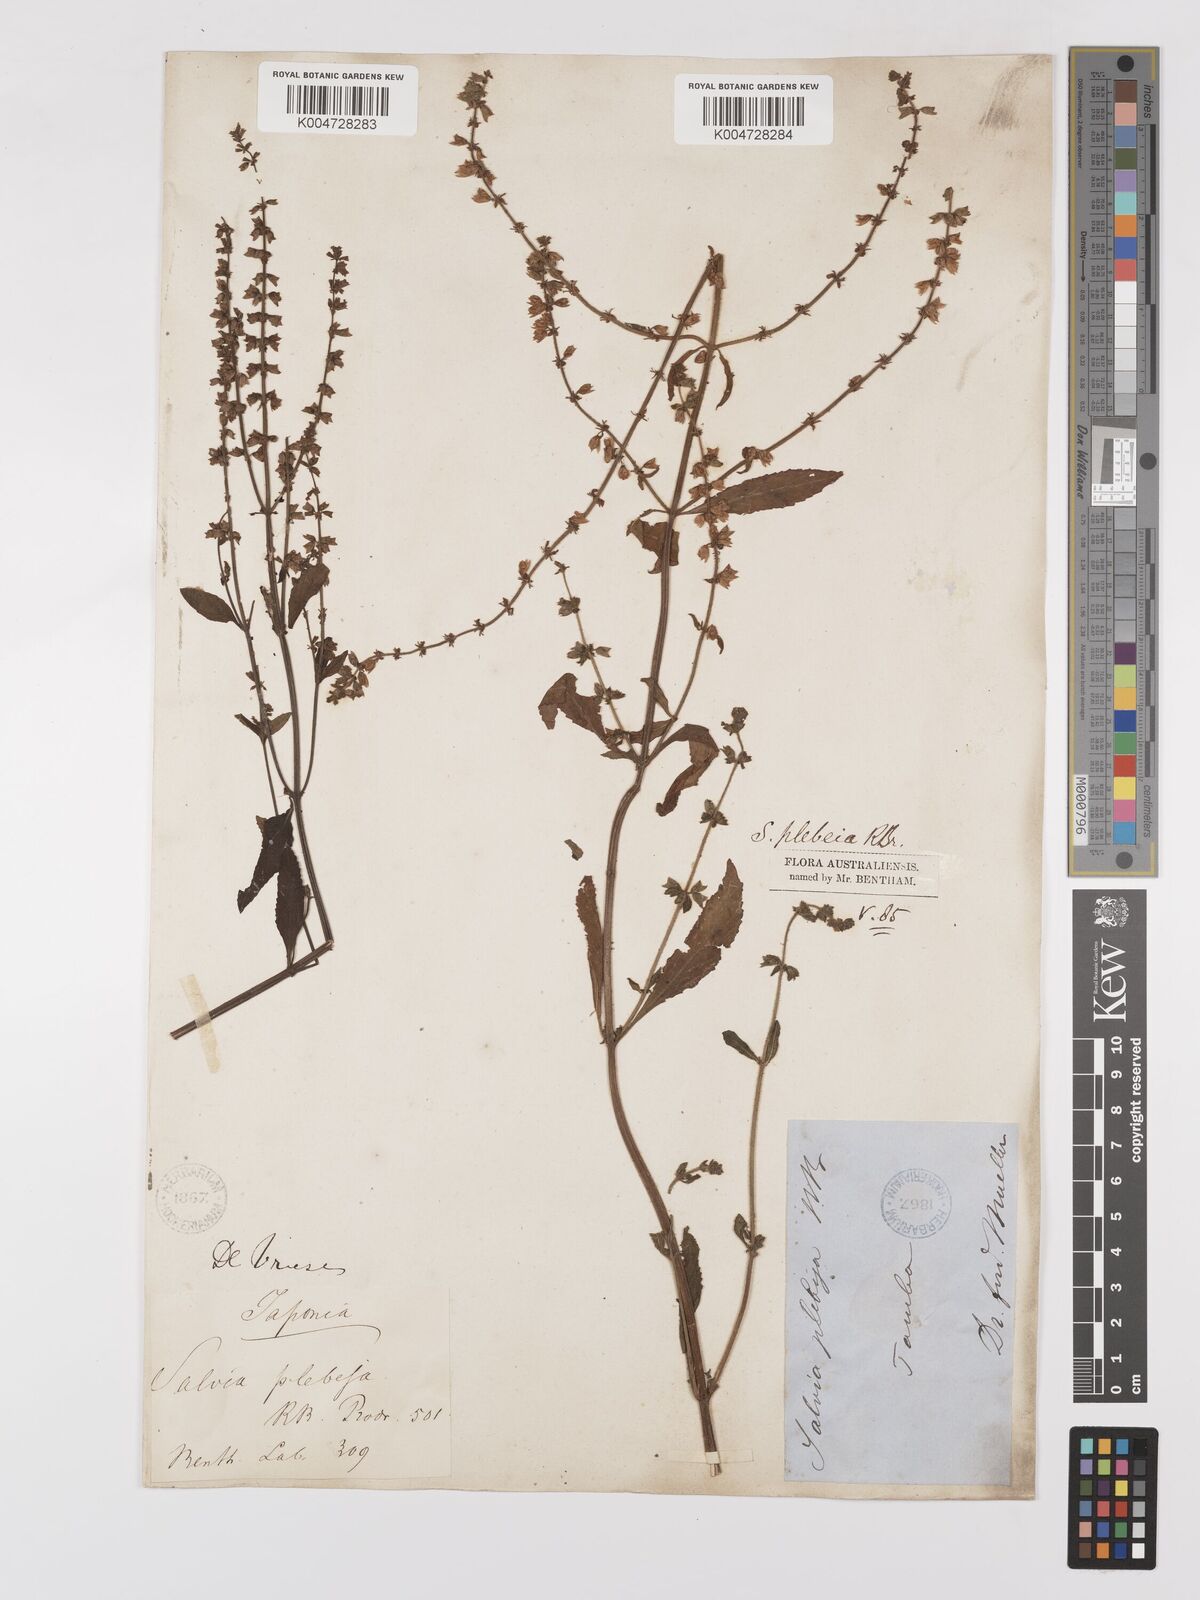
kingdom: Plantae
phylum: Tracheophyta
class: Magnoliopsida
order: Lamiales
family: Lamiaceae
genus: Salvia
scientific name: Salvia plebeia
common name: Australian sage
